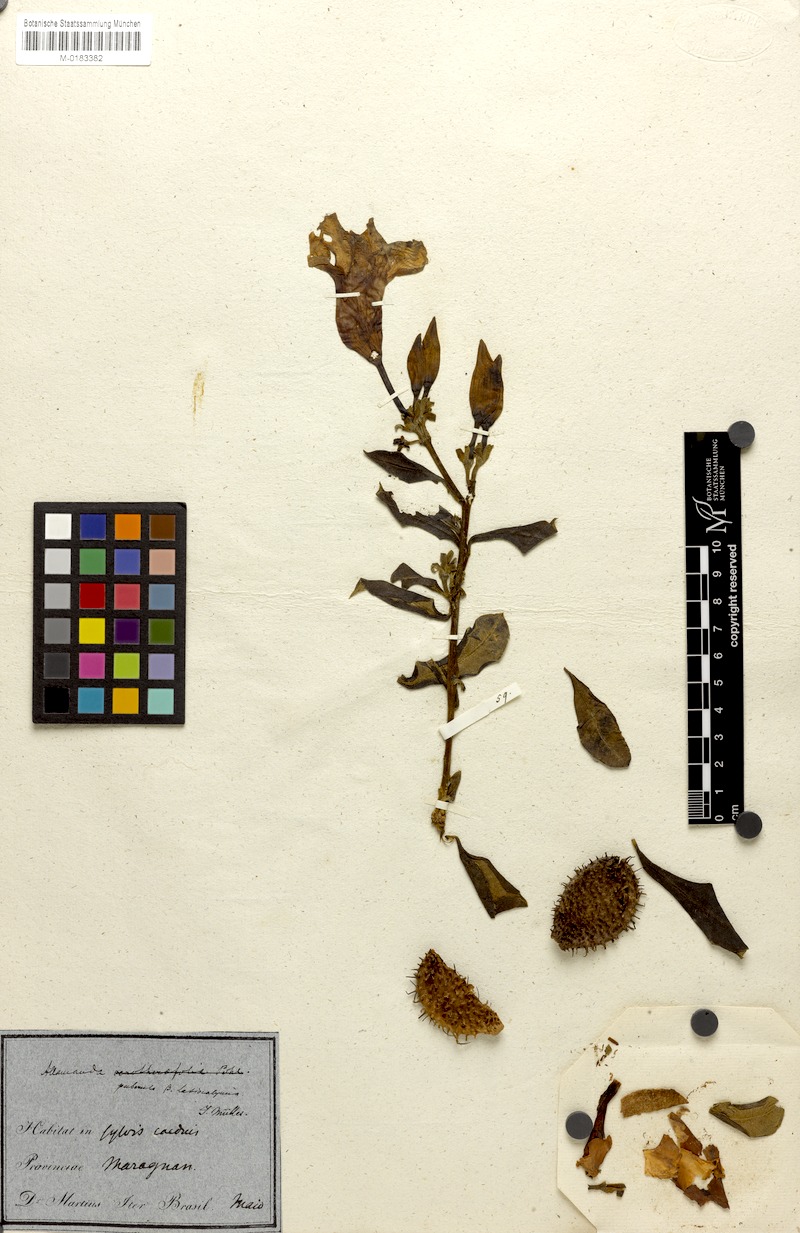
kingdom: Plantae
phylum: Tracheophyta
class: Magnoliopsida
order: Gentianales
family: Apocynaceae
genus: Allamanda
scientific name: Allamanda puberula
